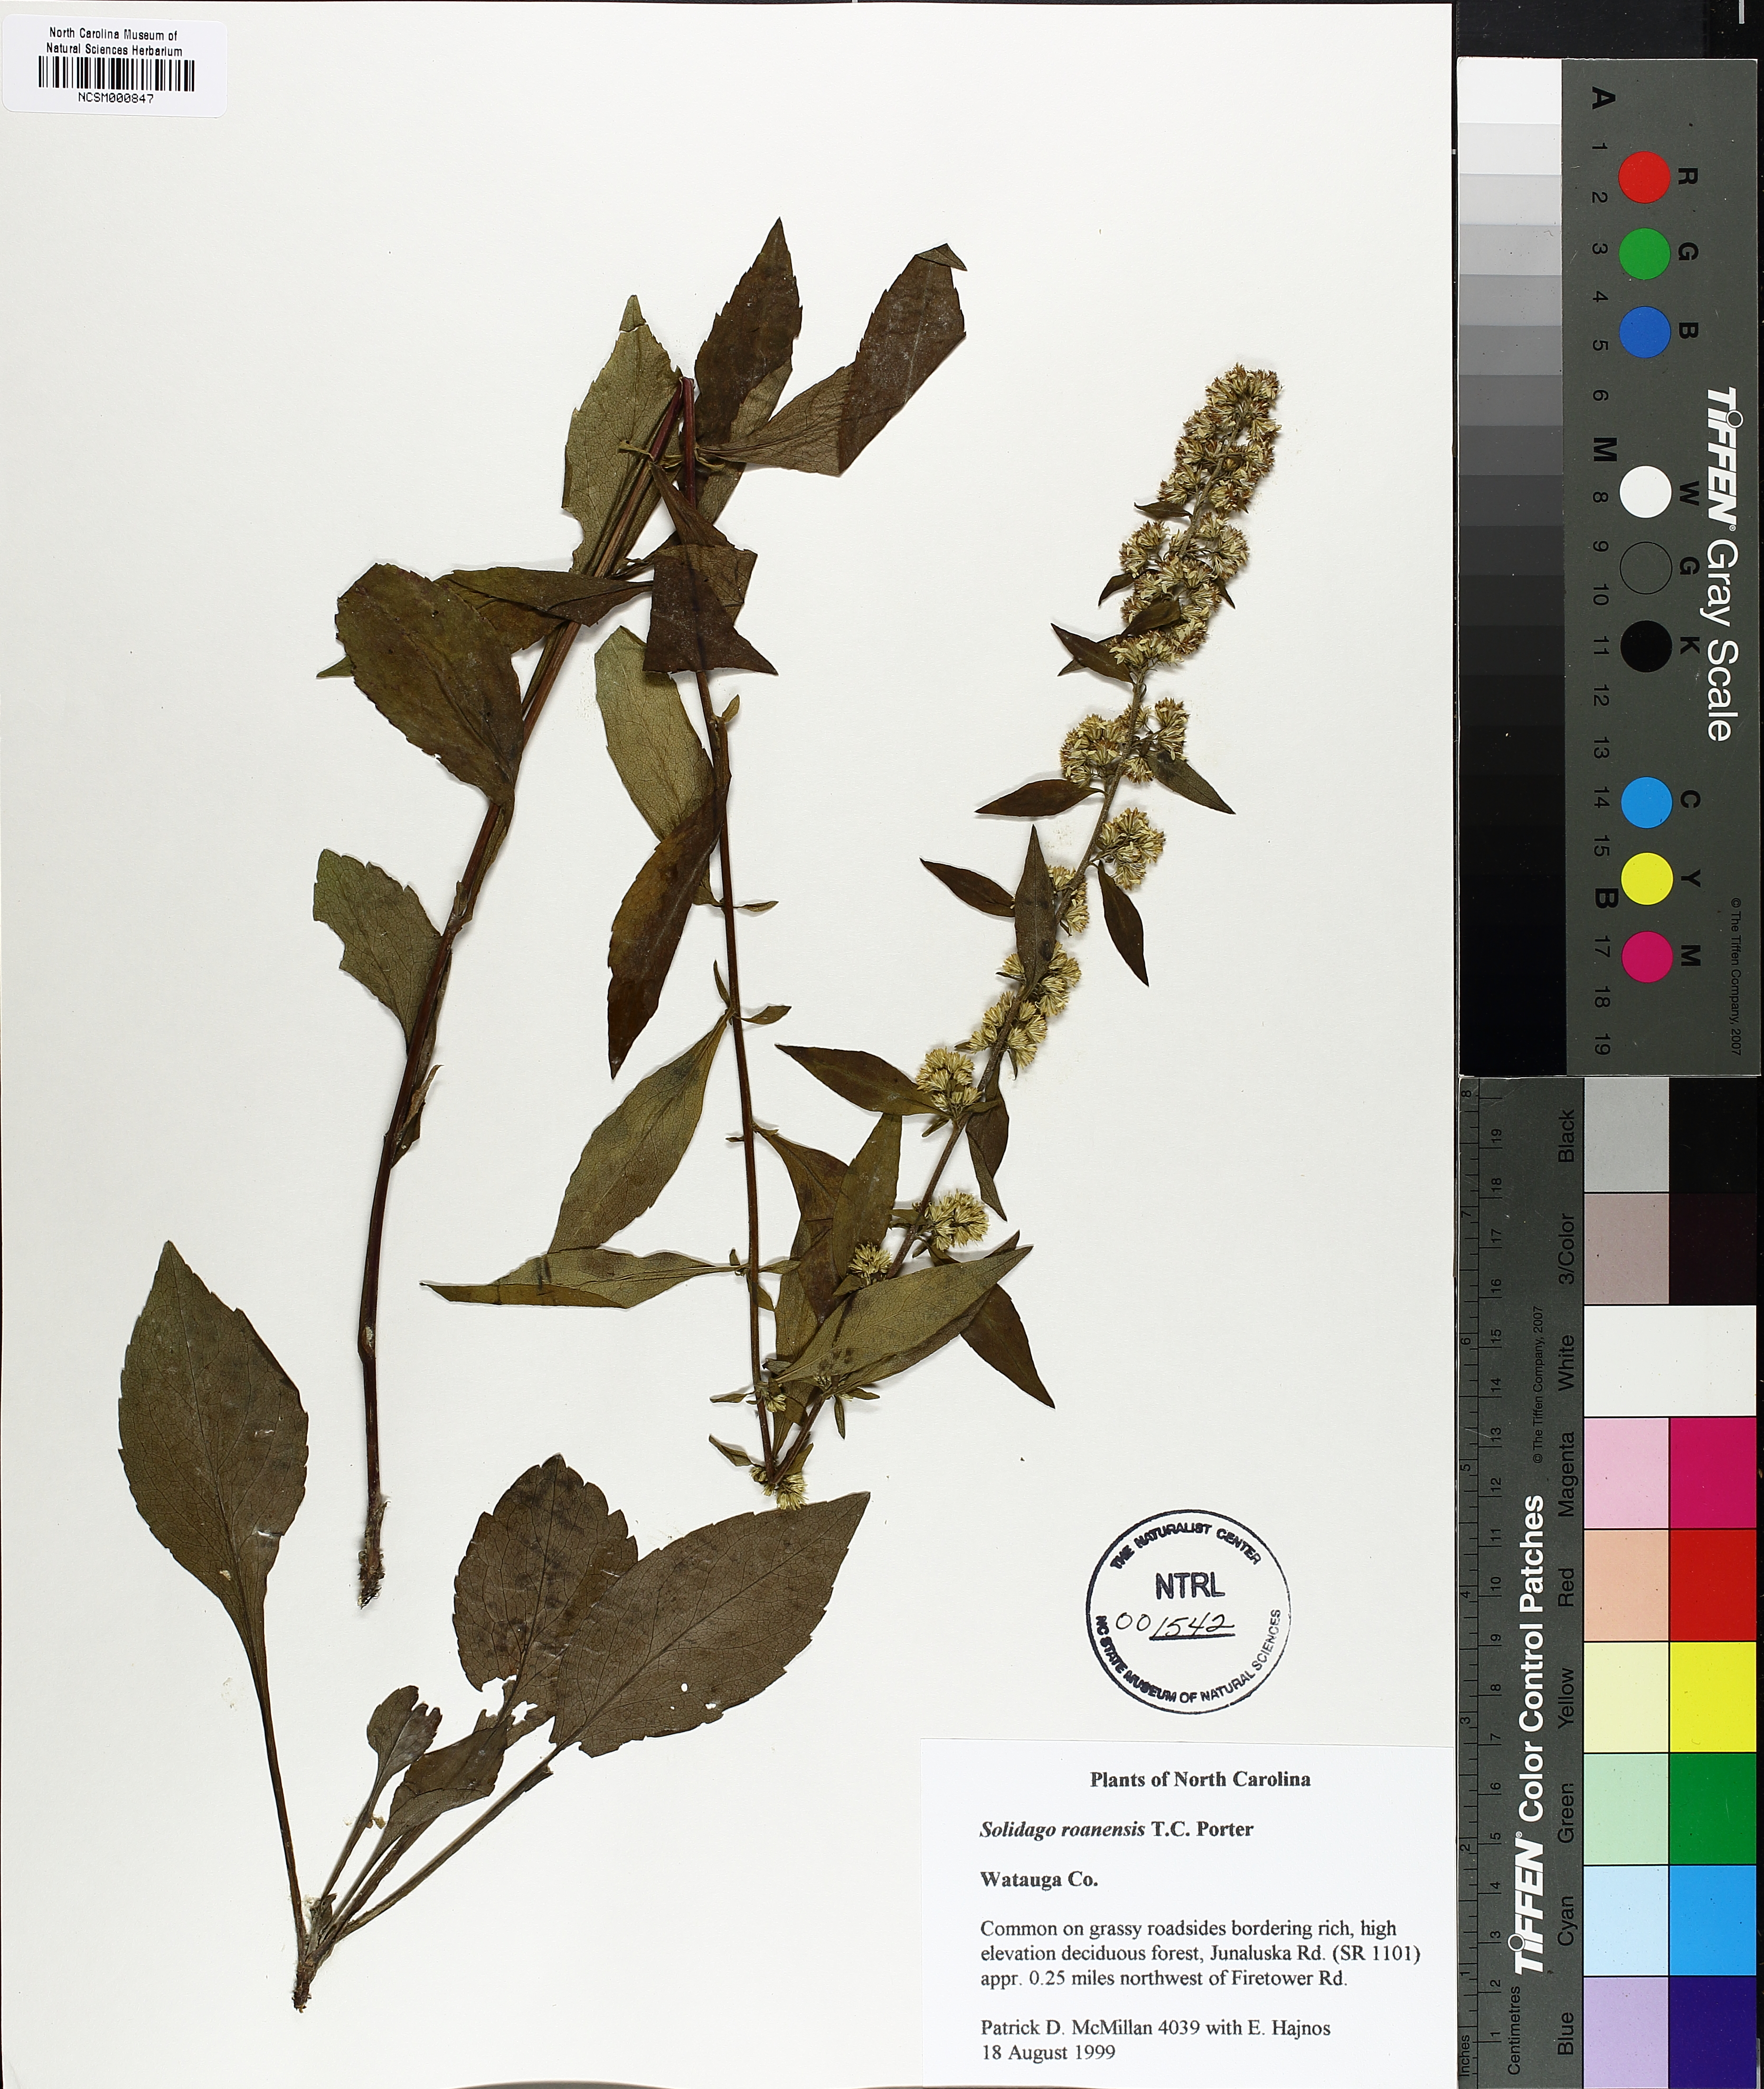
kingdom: Plantae
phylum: Tracheophyta
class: Magnoliopsida
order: Asterales
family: Asteraceae
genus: Solidago
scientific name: Solidago roanensis
